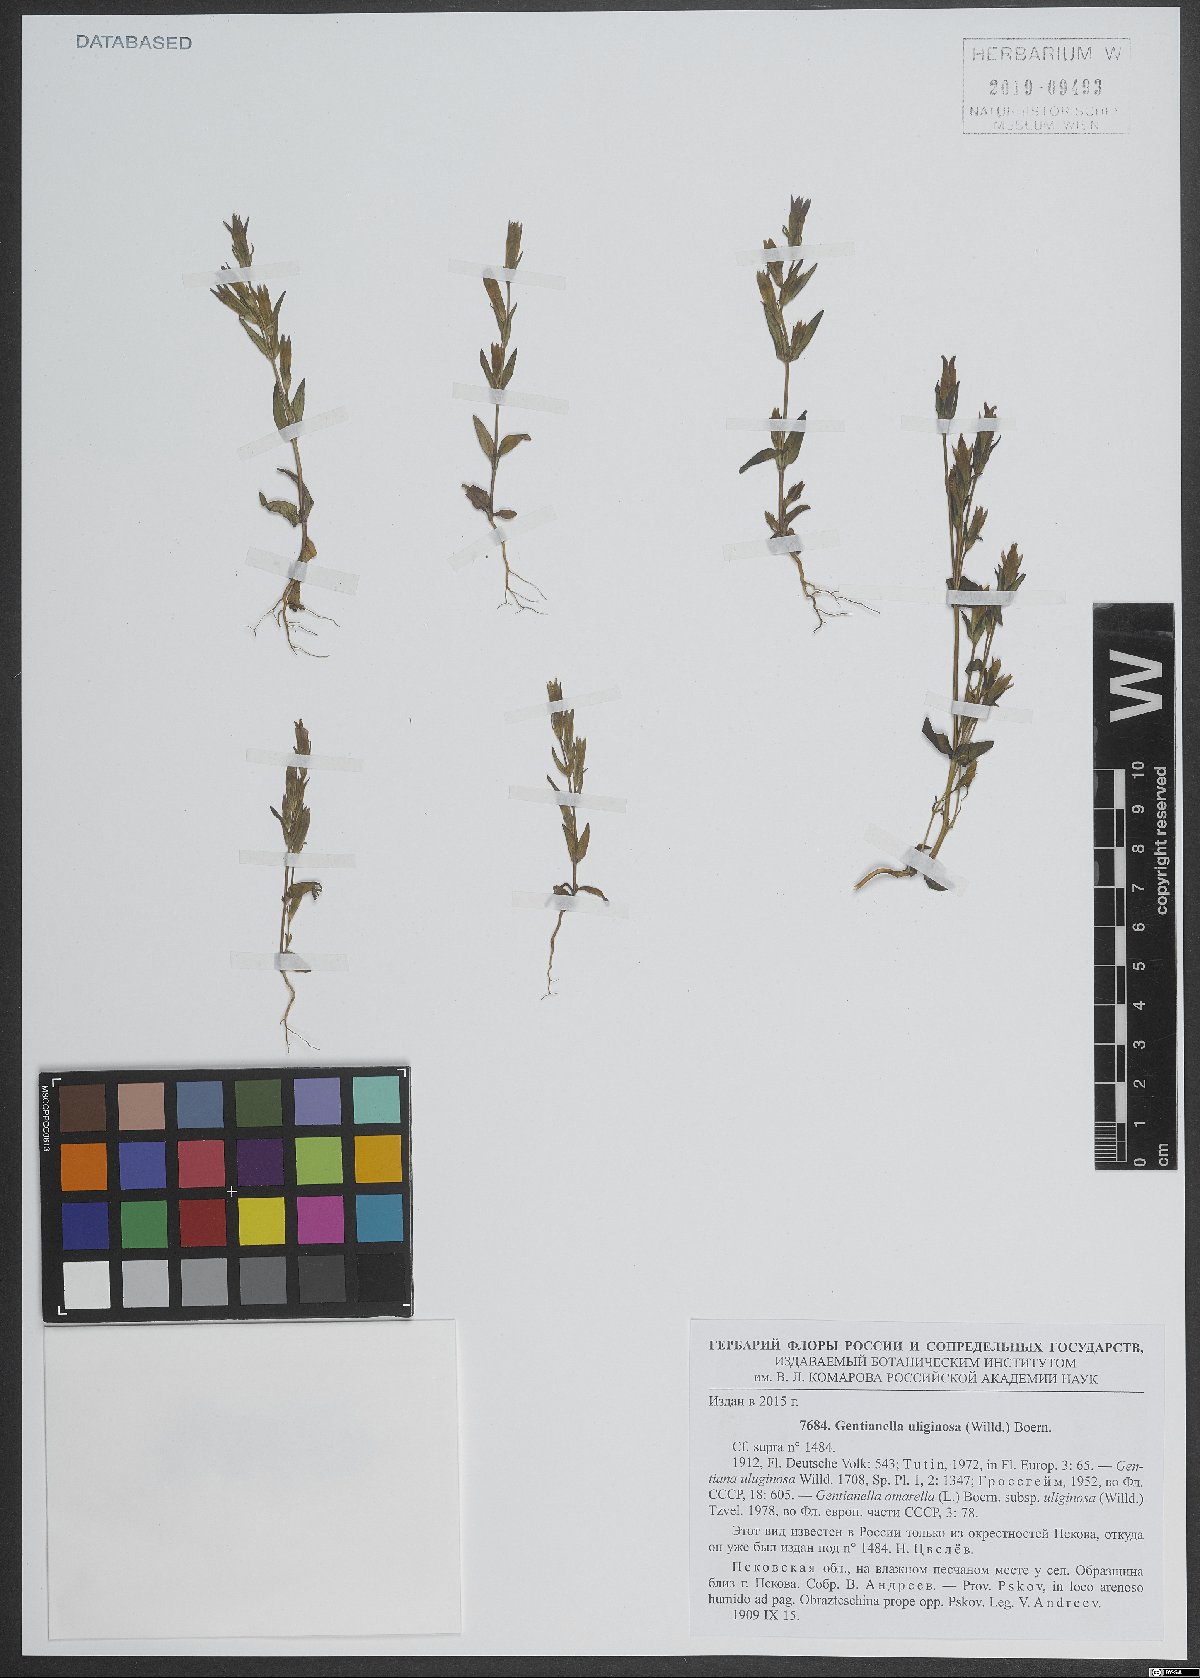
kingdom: Plantae
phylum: Tracheophyta
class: Magnoliopsida
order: Gentianales
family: Gentianaceae
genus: Gentianella
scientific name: Gentianella uliginosa
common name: Dune gentian
